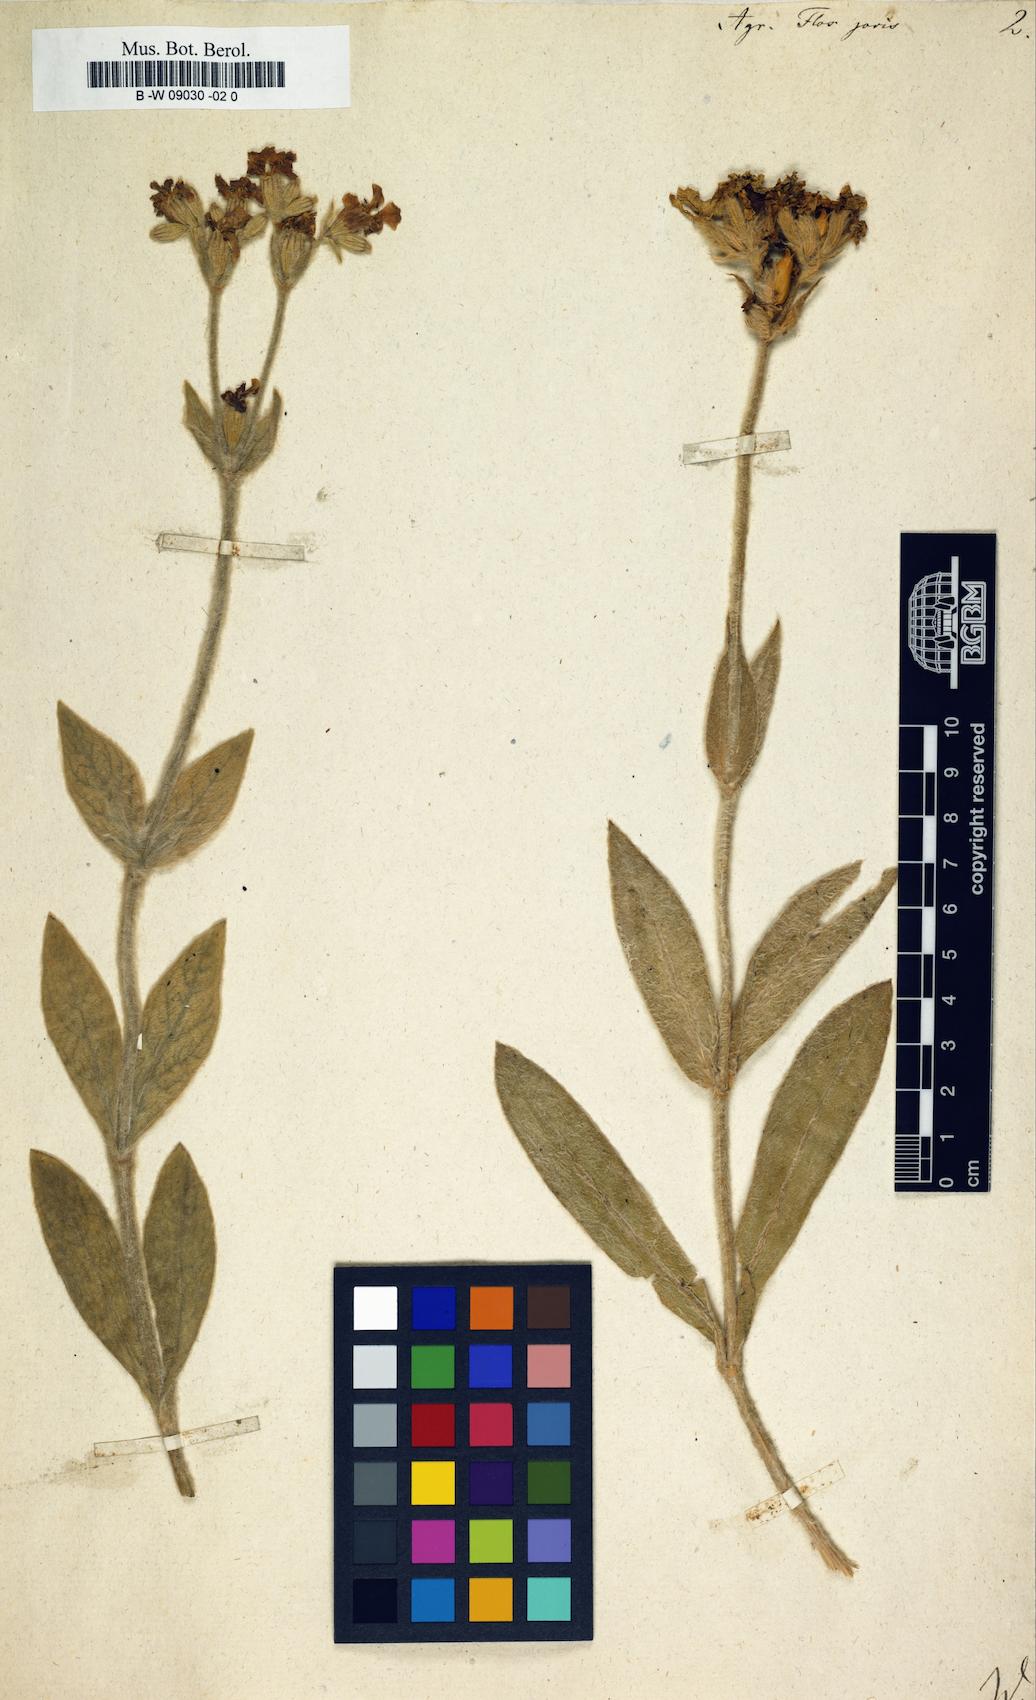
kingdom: Plantae
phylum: Tracheophyta
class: Magnoliopsida
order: Caryophyllales
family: Caryophyllaceae
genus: Silene
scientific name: Silene flos-jovis
